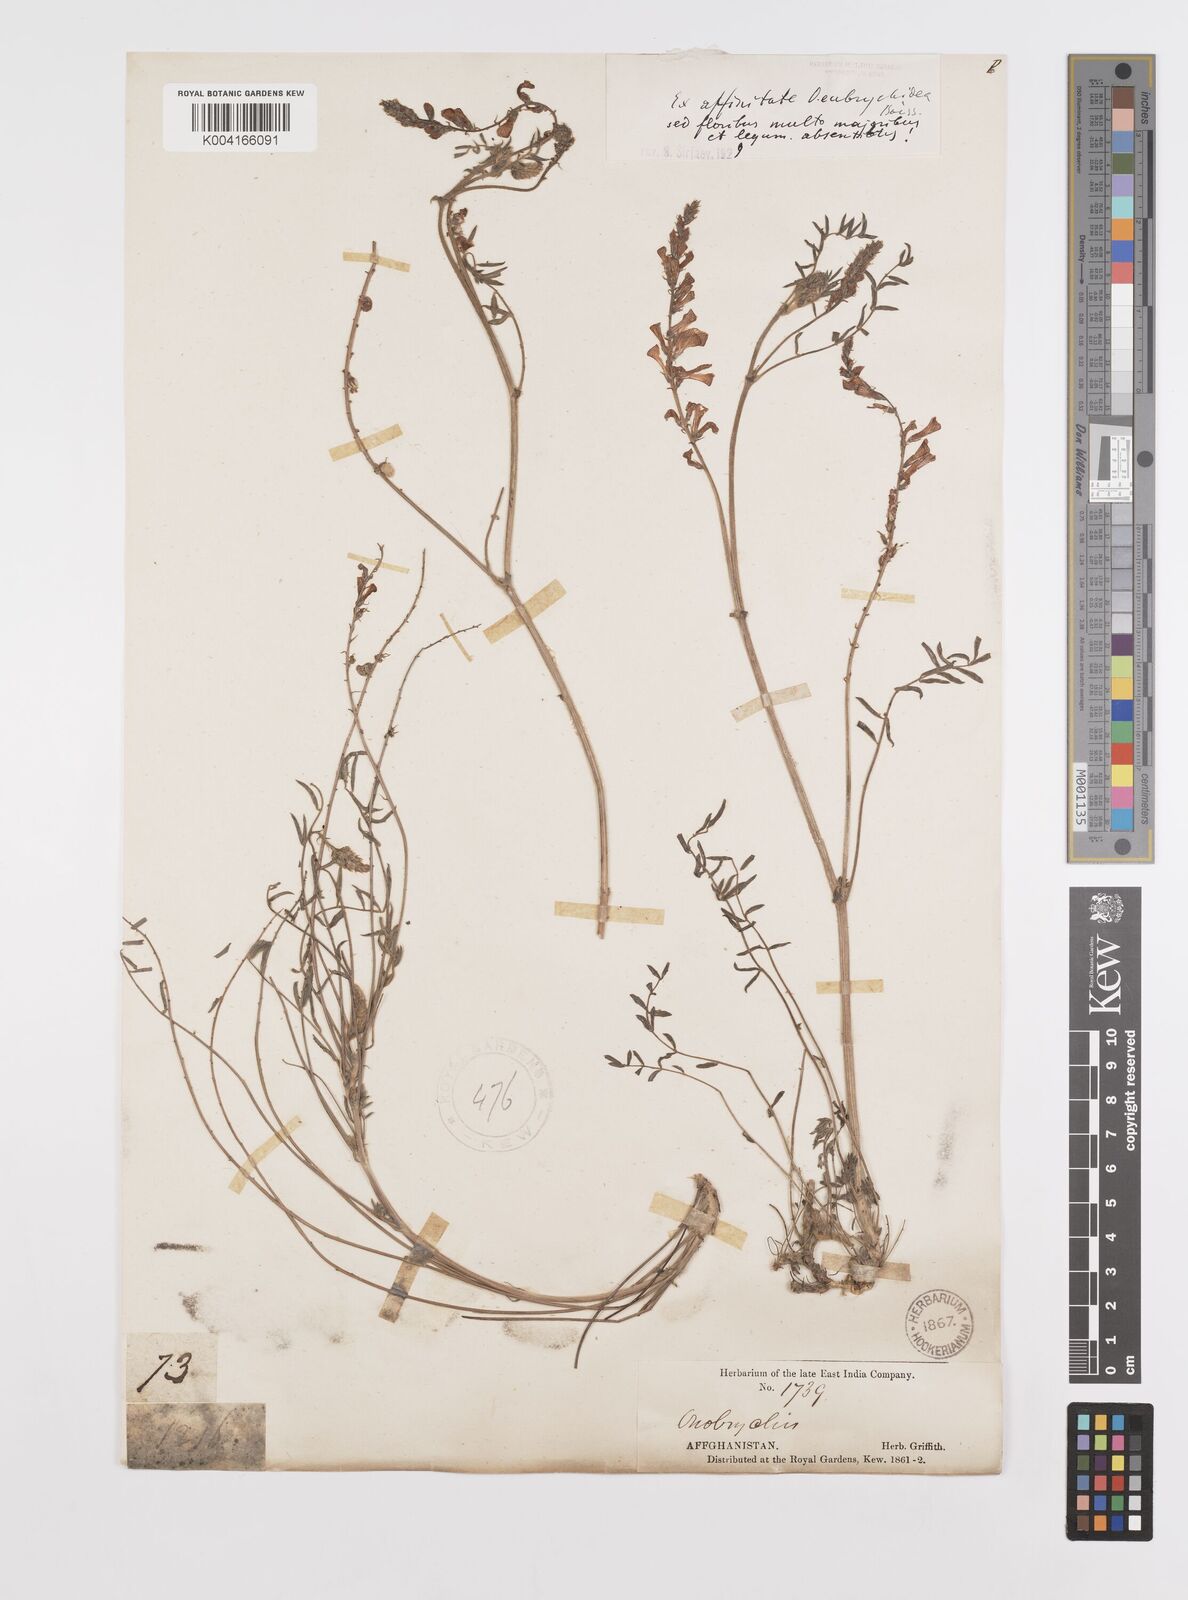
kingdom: Plantae
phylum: Tracheophyta
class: Magnoliopsida
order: Fabales
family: Fabaceae
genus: Onobrychis
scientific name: Onobrychis eubrychidea
